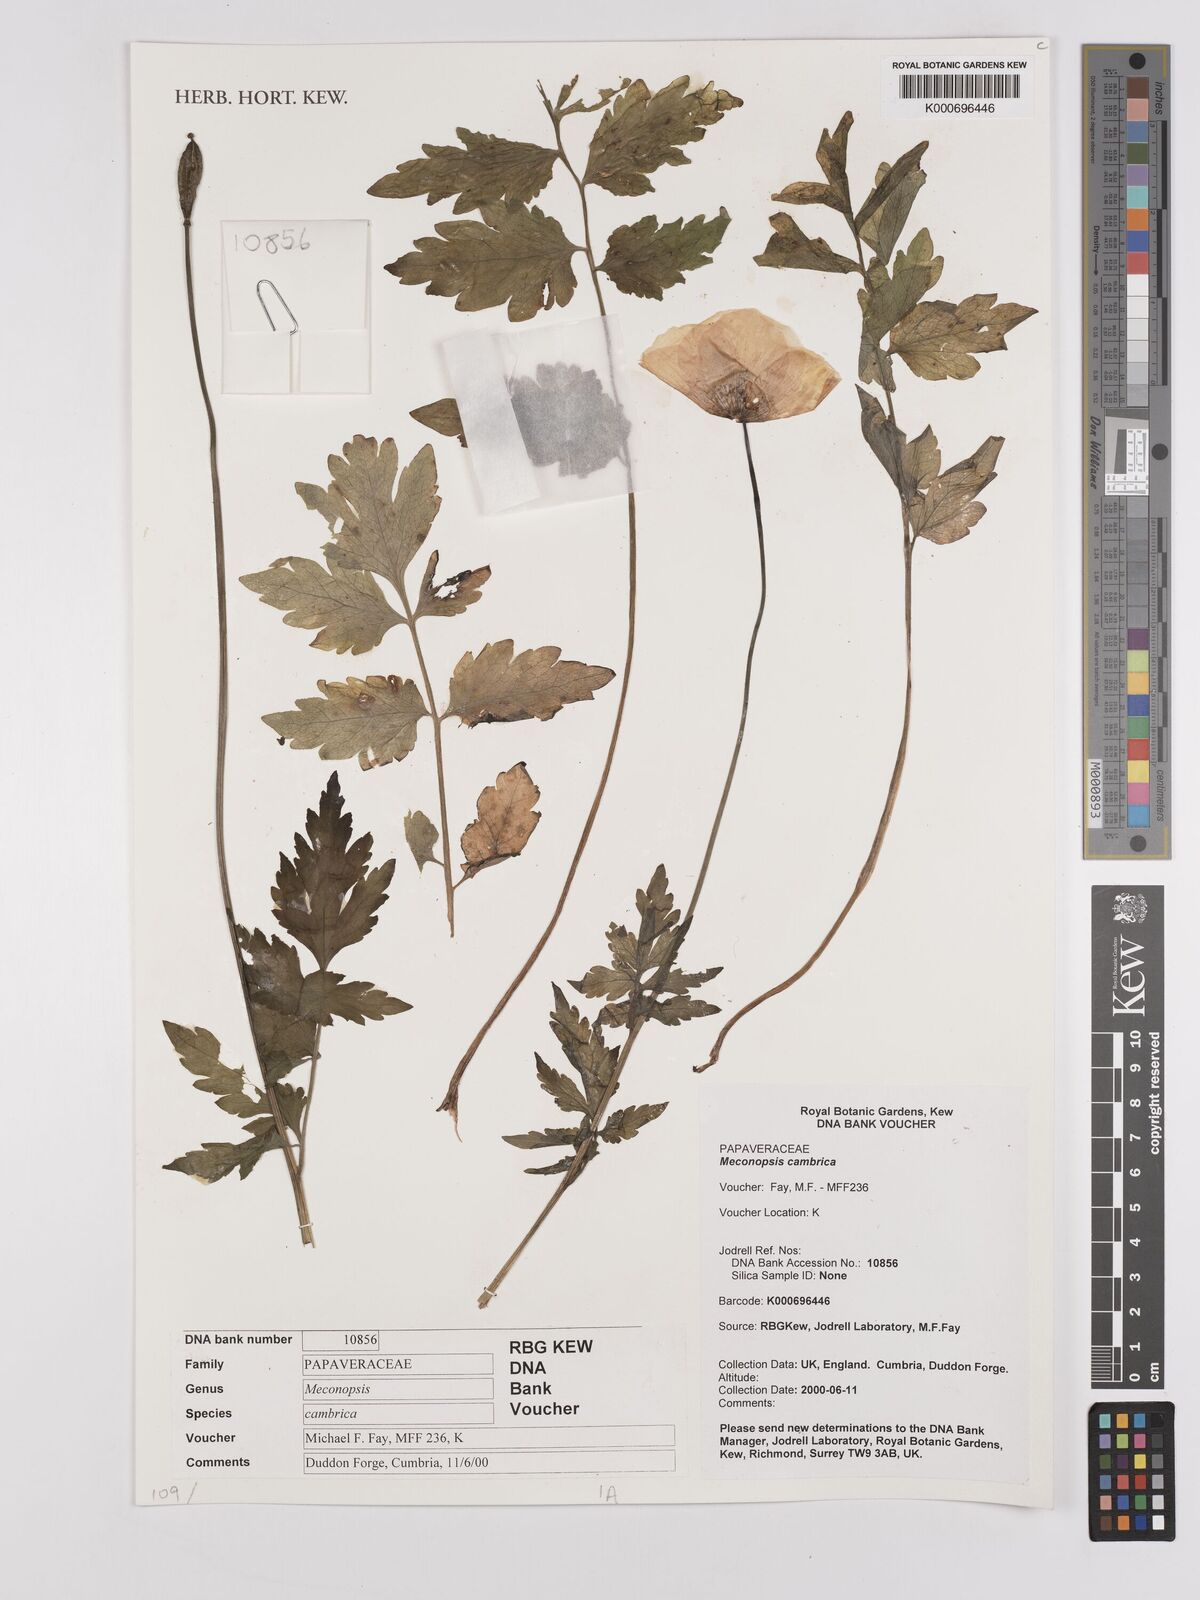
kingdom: Plantae
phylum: Tracheophyta
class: Magnoliopsida
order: Ranunculales
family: Papaveraceae
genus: Papaver
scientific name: Papaver cambricum
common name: Poppy
